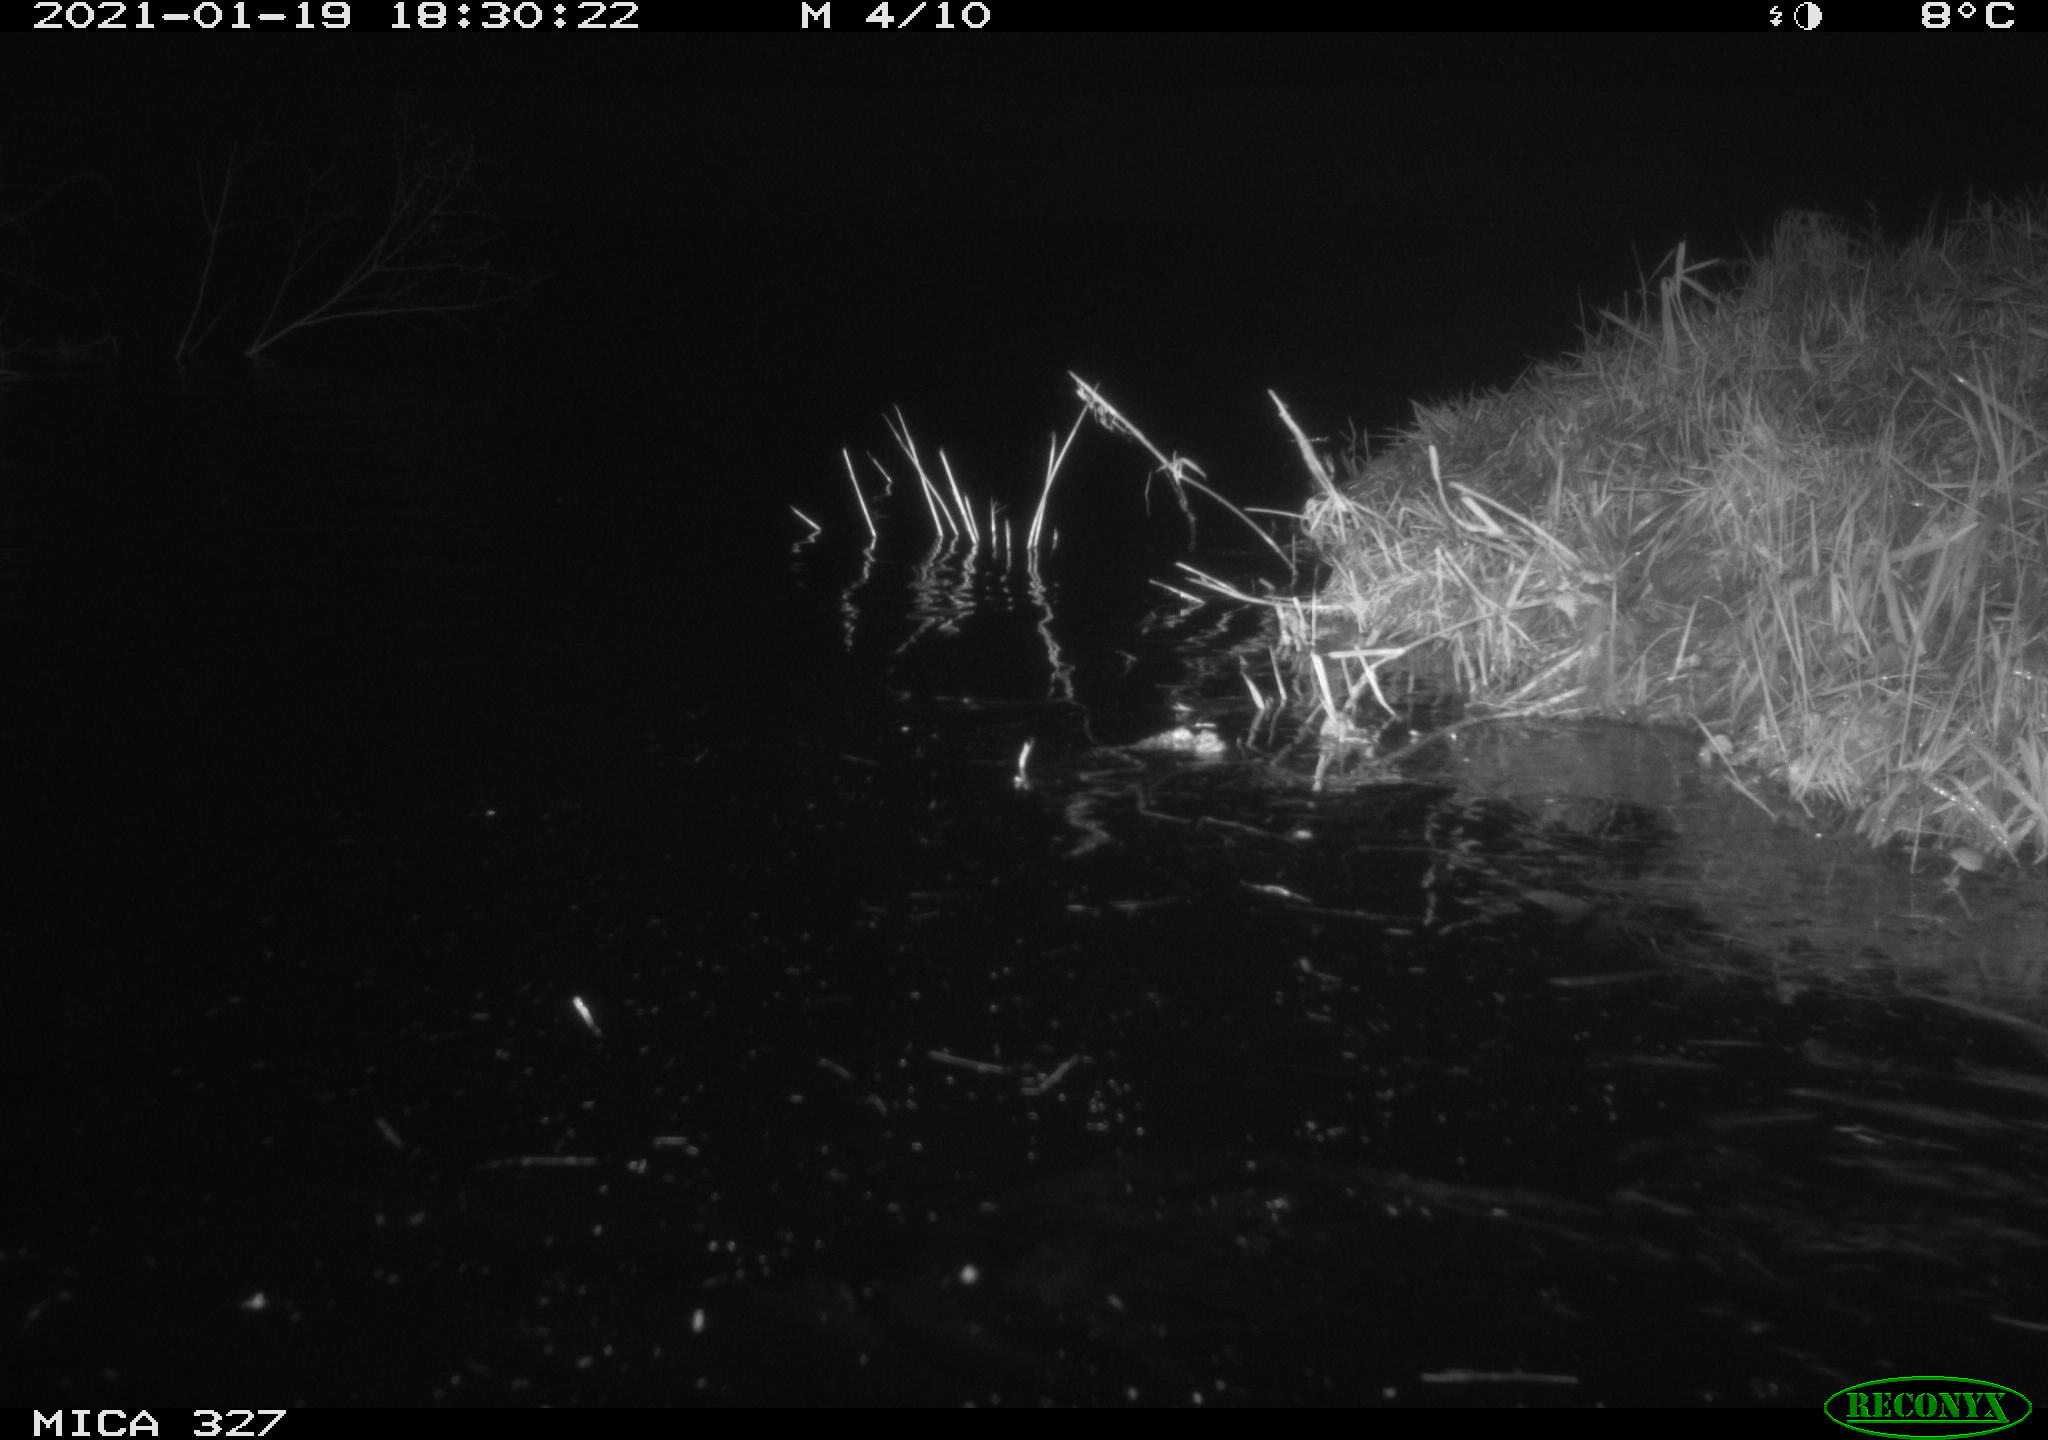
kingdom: Animalia
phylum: Chordata
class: Mammalia
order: Rodentia
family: Cricetidae
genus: Ondatra
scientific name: Ondatra zibethicus
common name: Muskrat
